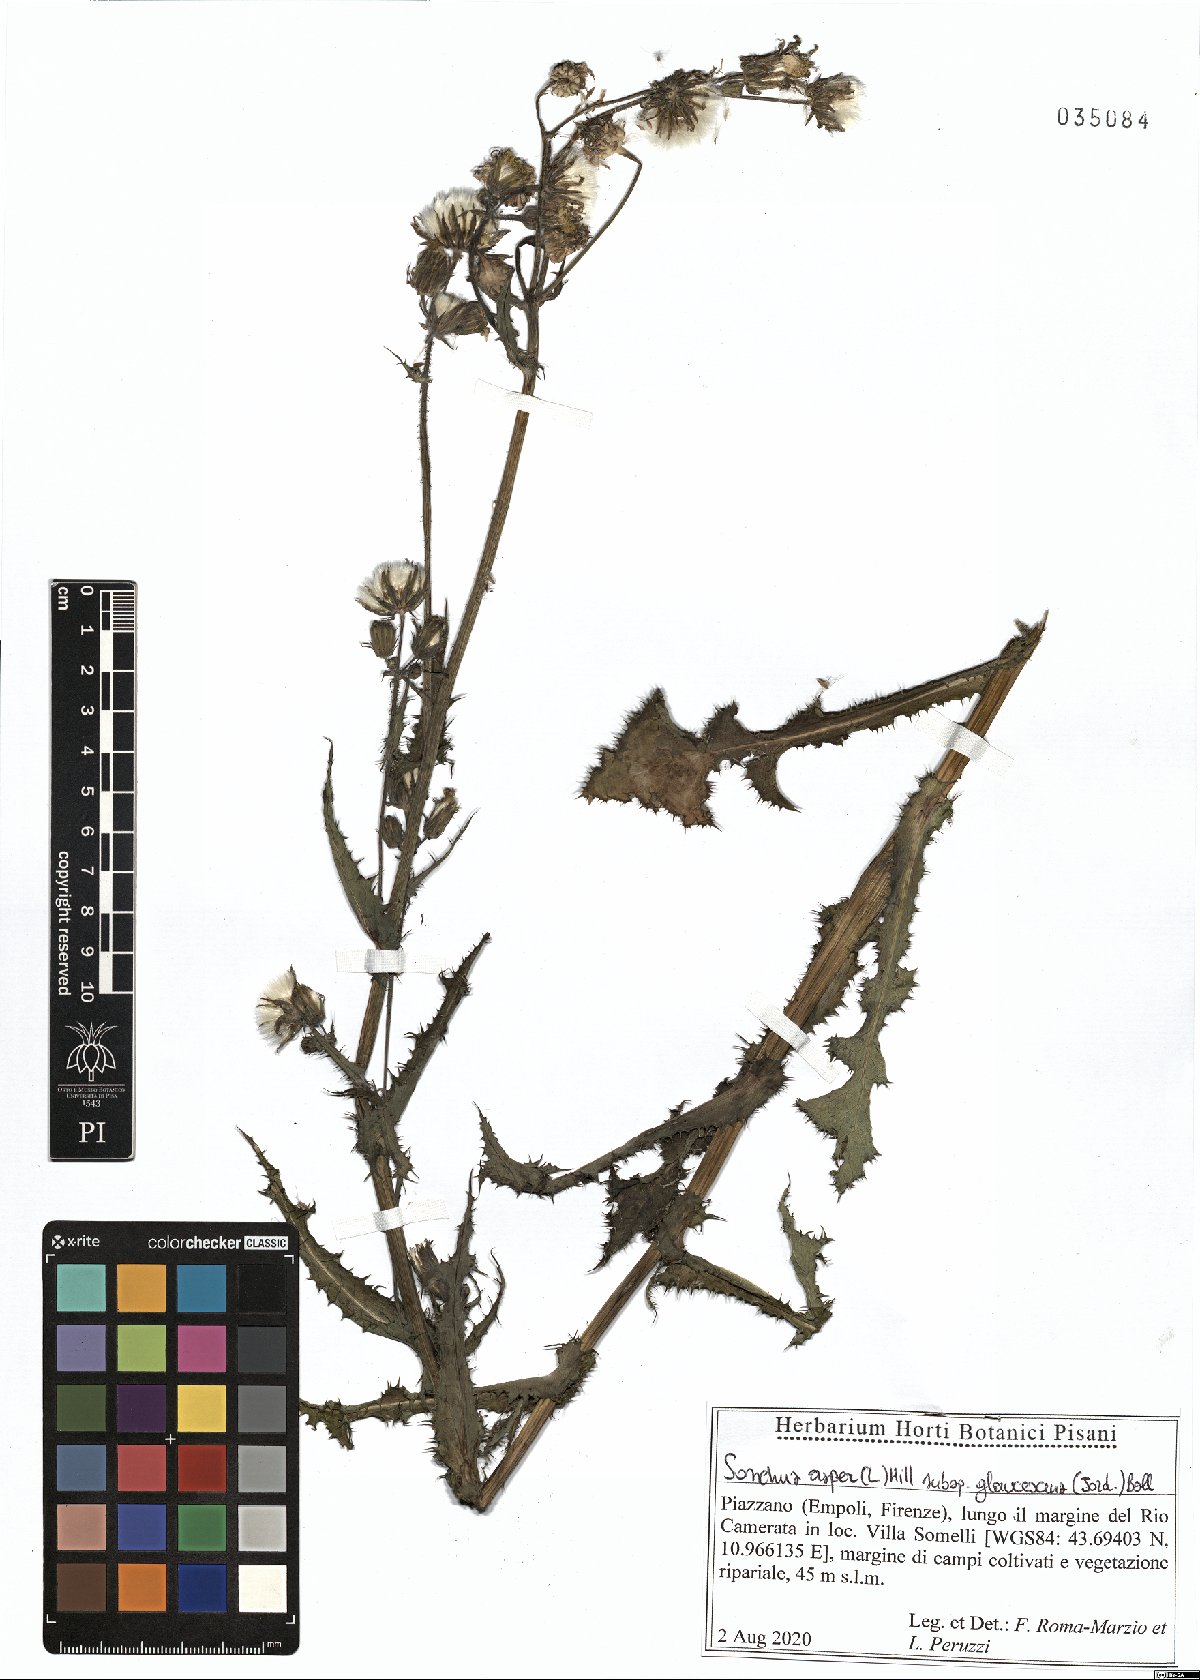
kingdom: Plantae
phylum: Tracheophyta
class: Magnoliopsida
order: Asterales
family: Asteraceae
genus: Sonchus
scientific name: Sonchus asper
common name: Prickly sow-thistle
